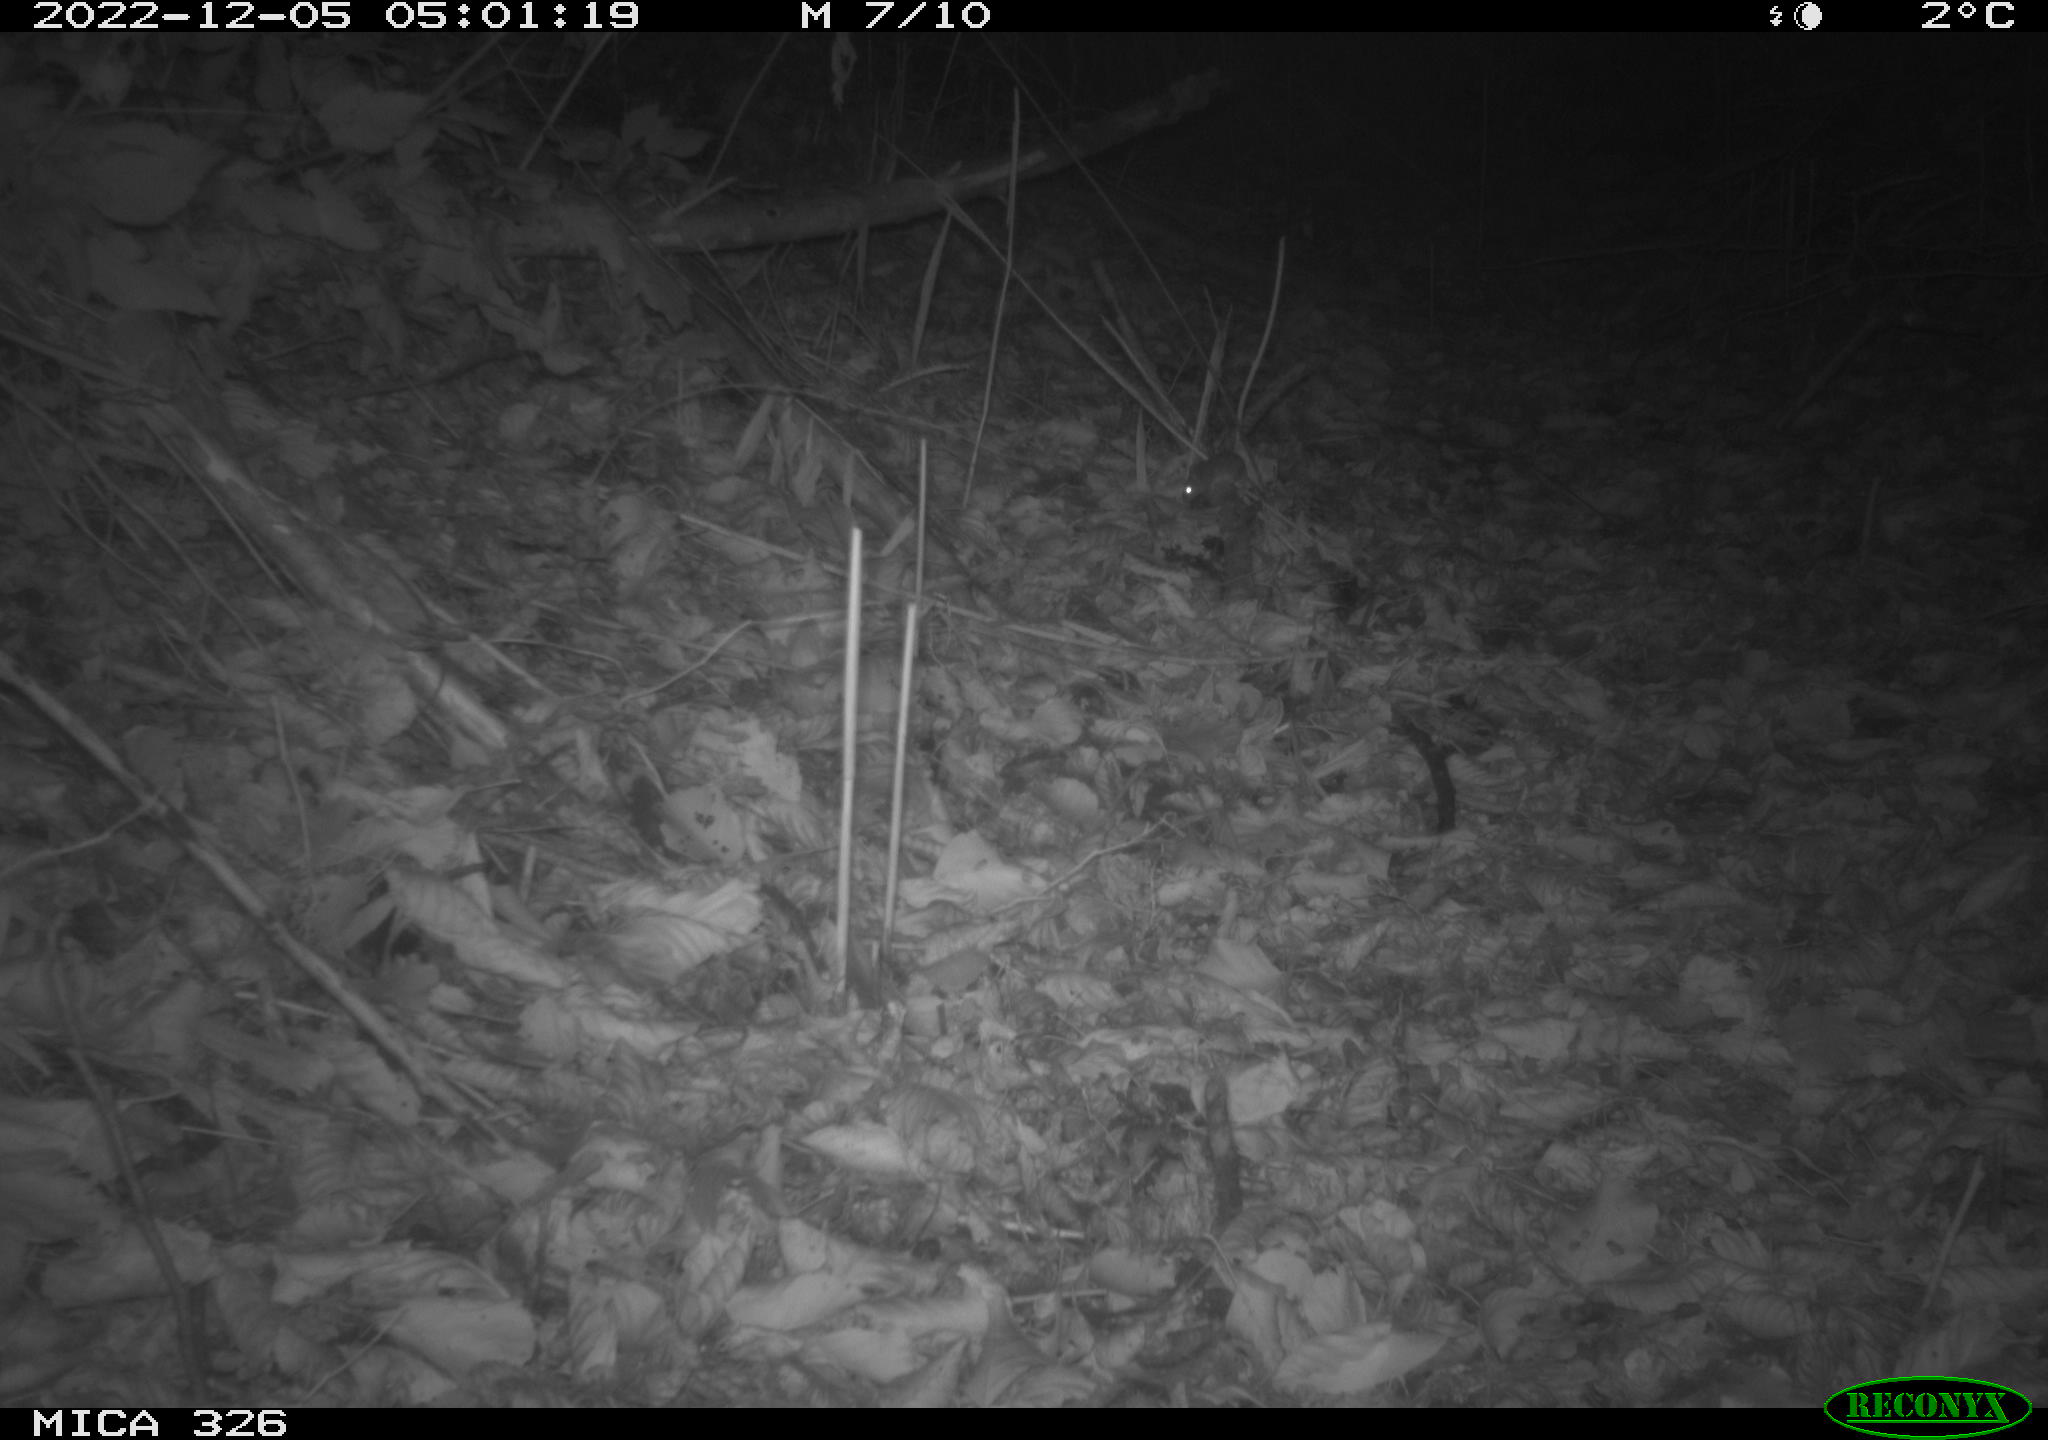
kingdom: Animalia
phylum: Chordata
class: Mammalia
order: Rodentia
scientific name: Rodentia
